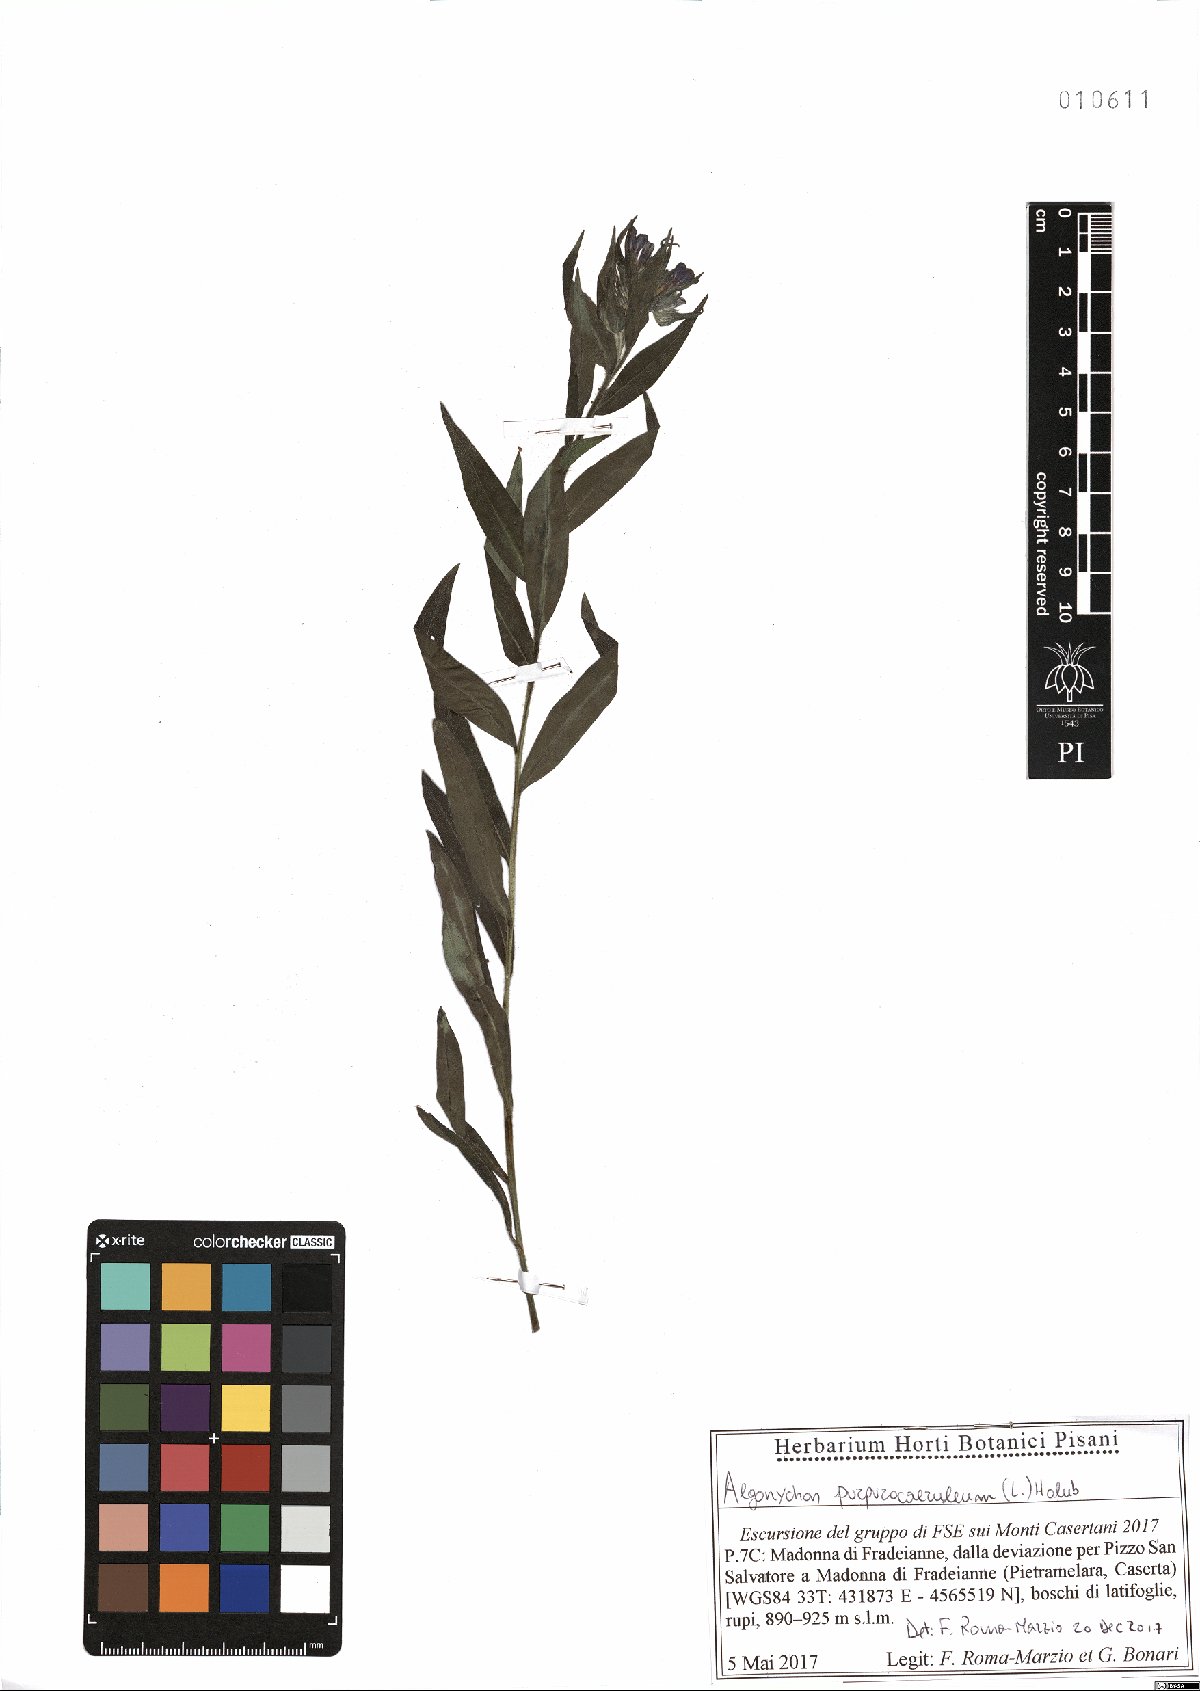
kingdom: Plantae
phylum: Tracheophyta
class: Magnoliopsida
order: Boraginales
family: Boraginaceae
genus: Aegonychon
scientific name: Aegonychon purpurocaeruleum
